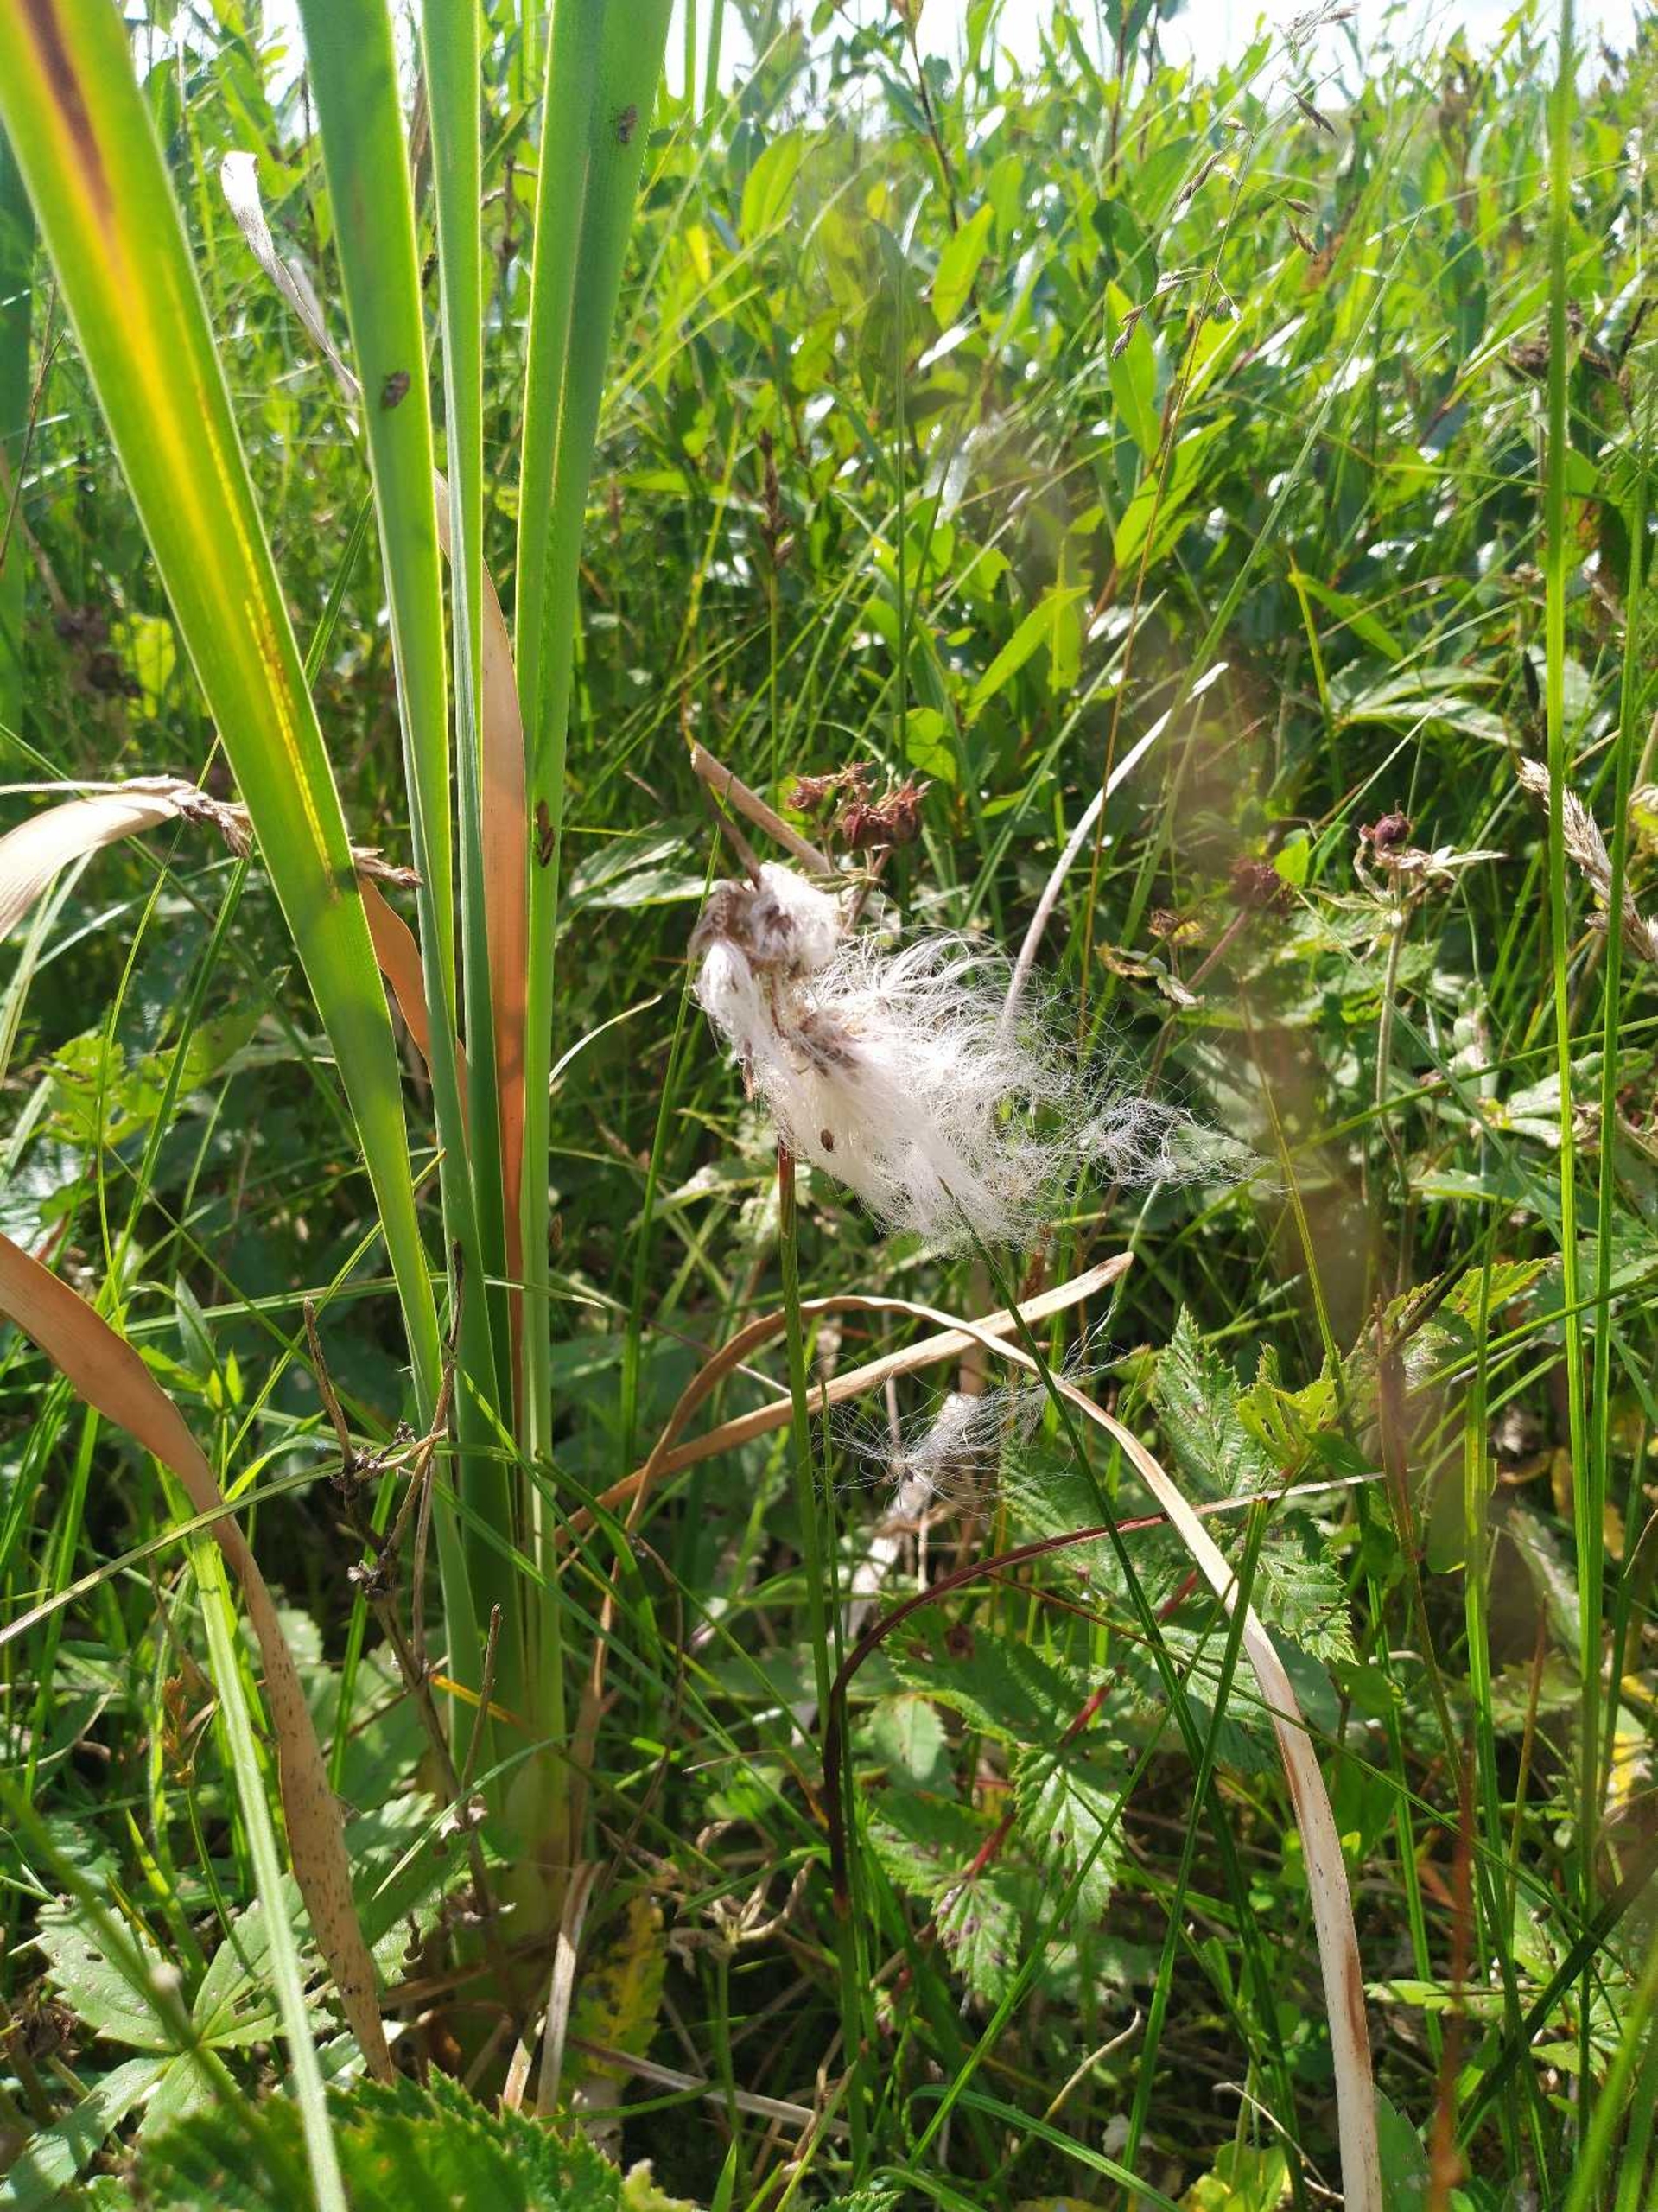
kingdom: Plantae
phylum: Tracheophyta
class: Liliopsida
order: Poales
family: Cyperaceae
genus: Eriophorum
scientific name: Eriophorum angustifolium
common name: Smalbladet kæruld
